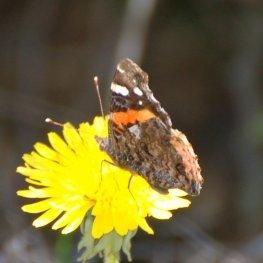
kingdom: Animalia
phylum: Arthropoda
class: Insecta
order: Lepidoptera
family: Nymphalidae
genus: Vanessa
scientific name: Vanessa atalanta
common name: Red Admiral
